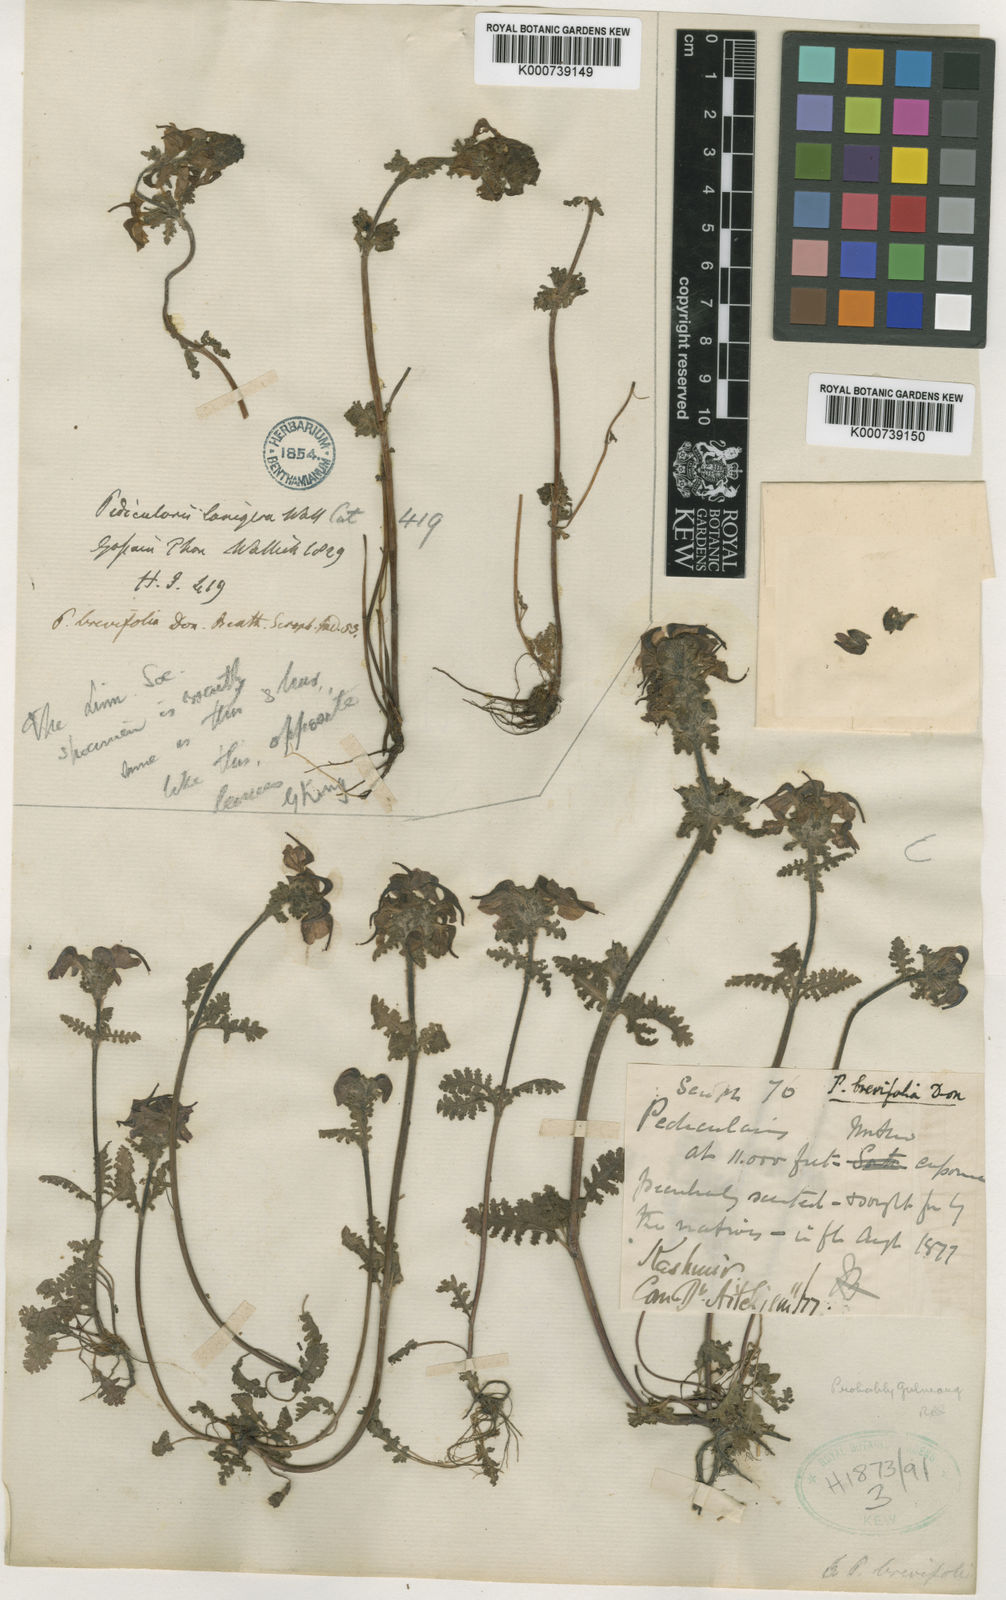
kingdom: Plantae
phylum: Tracheophyta
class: Magnoliopsida
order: Lamiales
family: Orobanchaceae
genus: Pedicularis
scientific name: Pedicularis brevifolia
